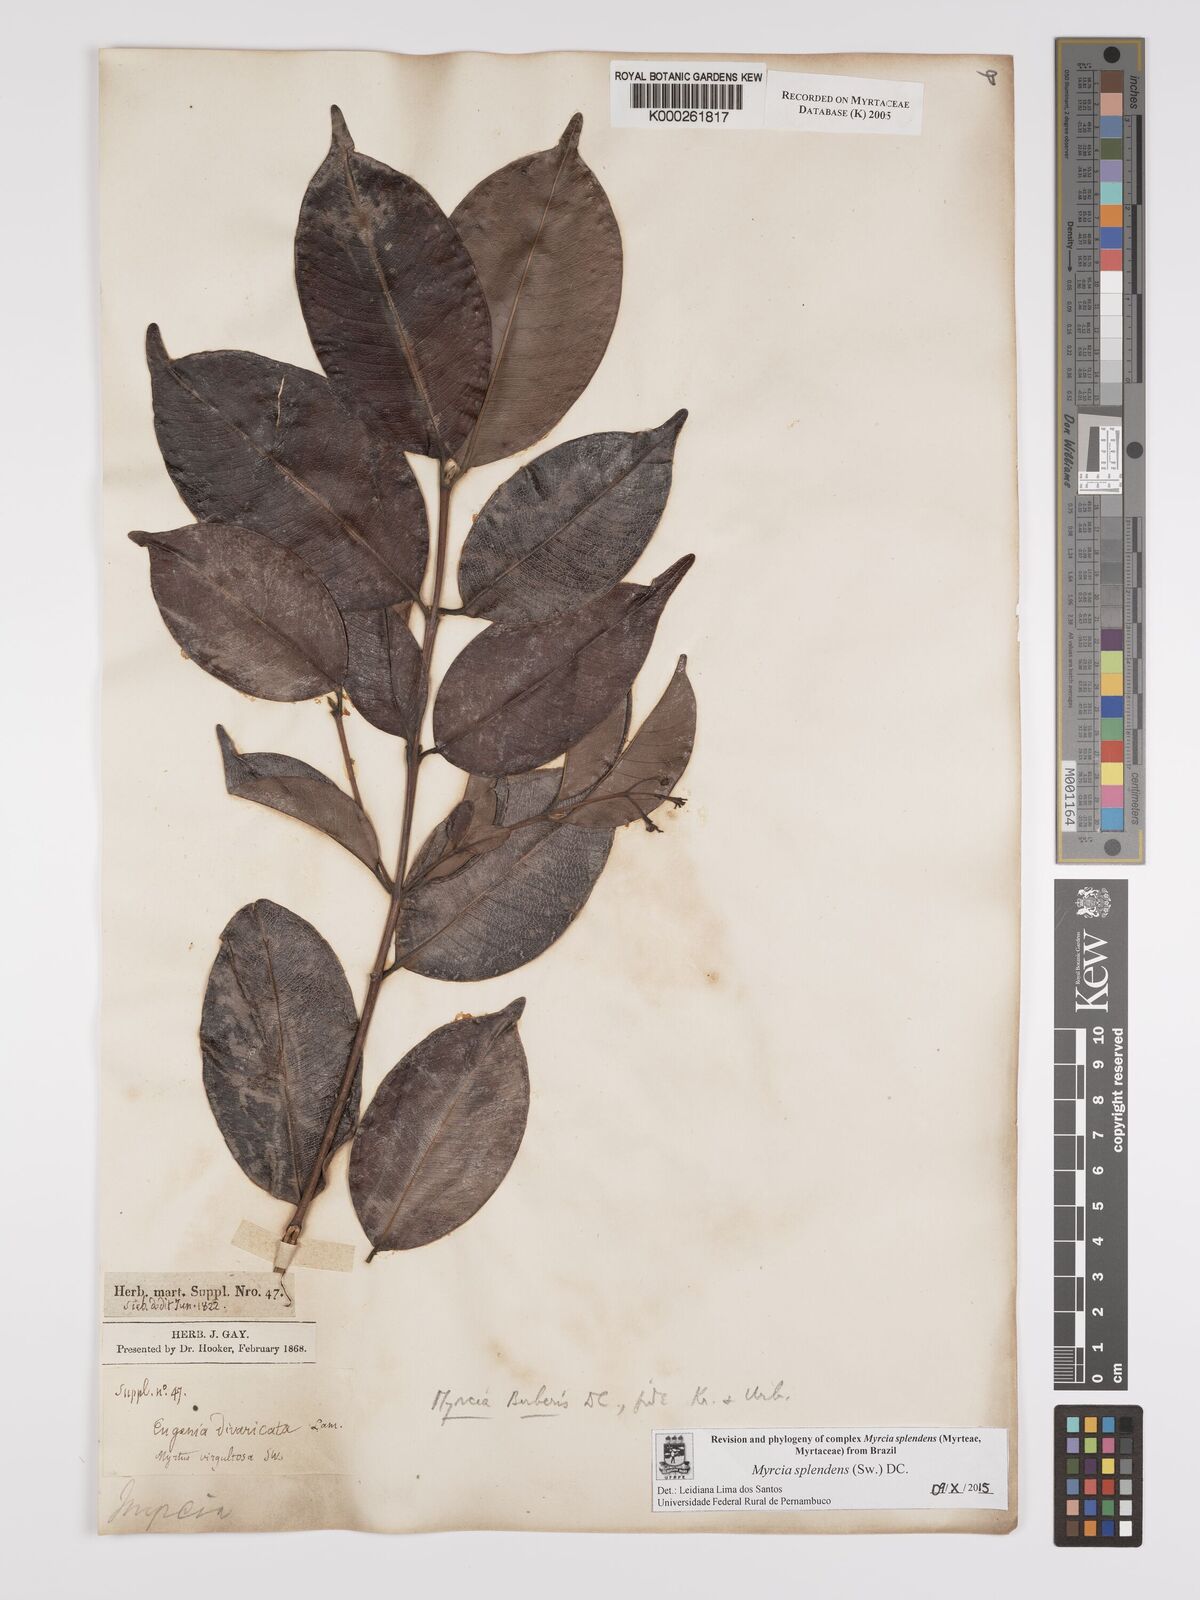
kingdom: Plantae
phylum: Tracheophyta
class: Magnoliopsida
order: Myrtales
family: Myrtaceae
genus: Myrcia
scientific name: Myrcia splendens
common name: Surinam cherry
